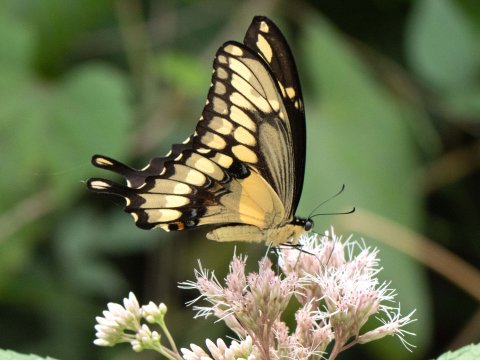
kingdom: Animalia
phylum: Arthropoda
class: Insecta
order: Lepidoptera
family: Papilionidae
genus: Papilio
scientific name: Papilio cresphontes
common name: Eastern Giant Swallowtail
